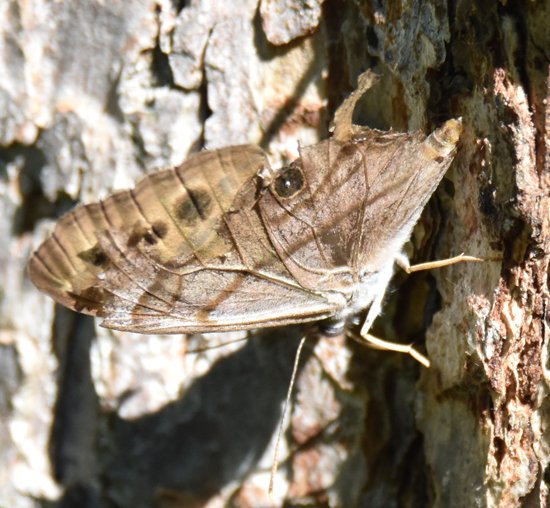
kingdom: Animalia
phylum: Arthropoda
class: Insecta
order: Lepidoptera
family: Nymphalidae
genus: Lethe
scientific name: Lethe anthedon
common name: Northern Pearly-Eye
